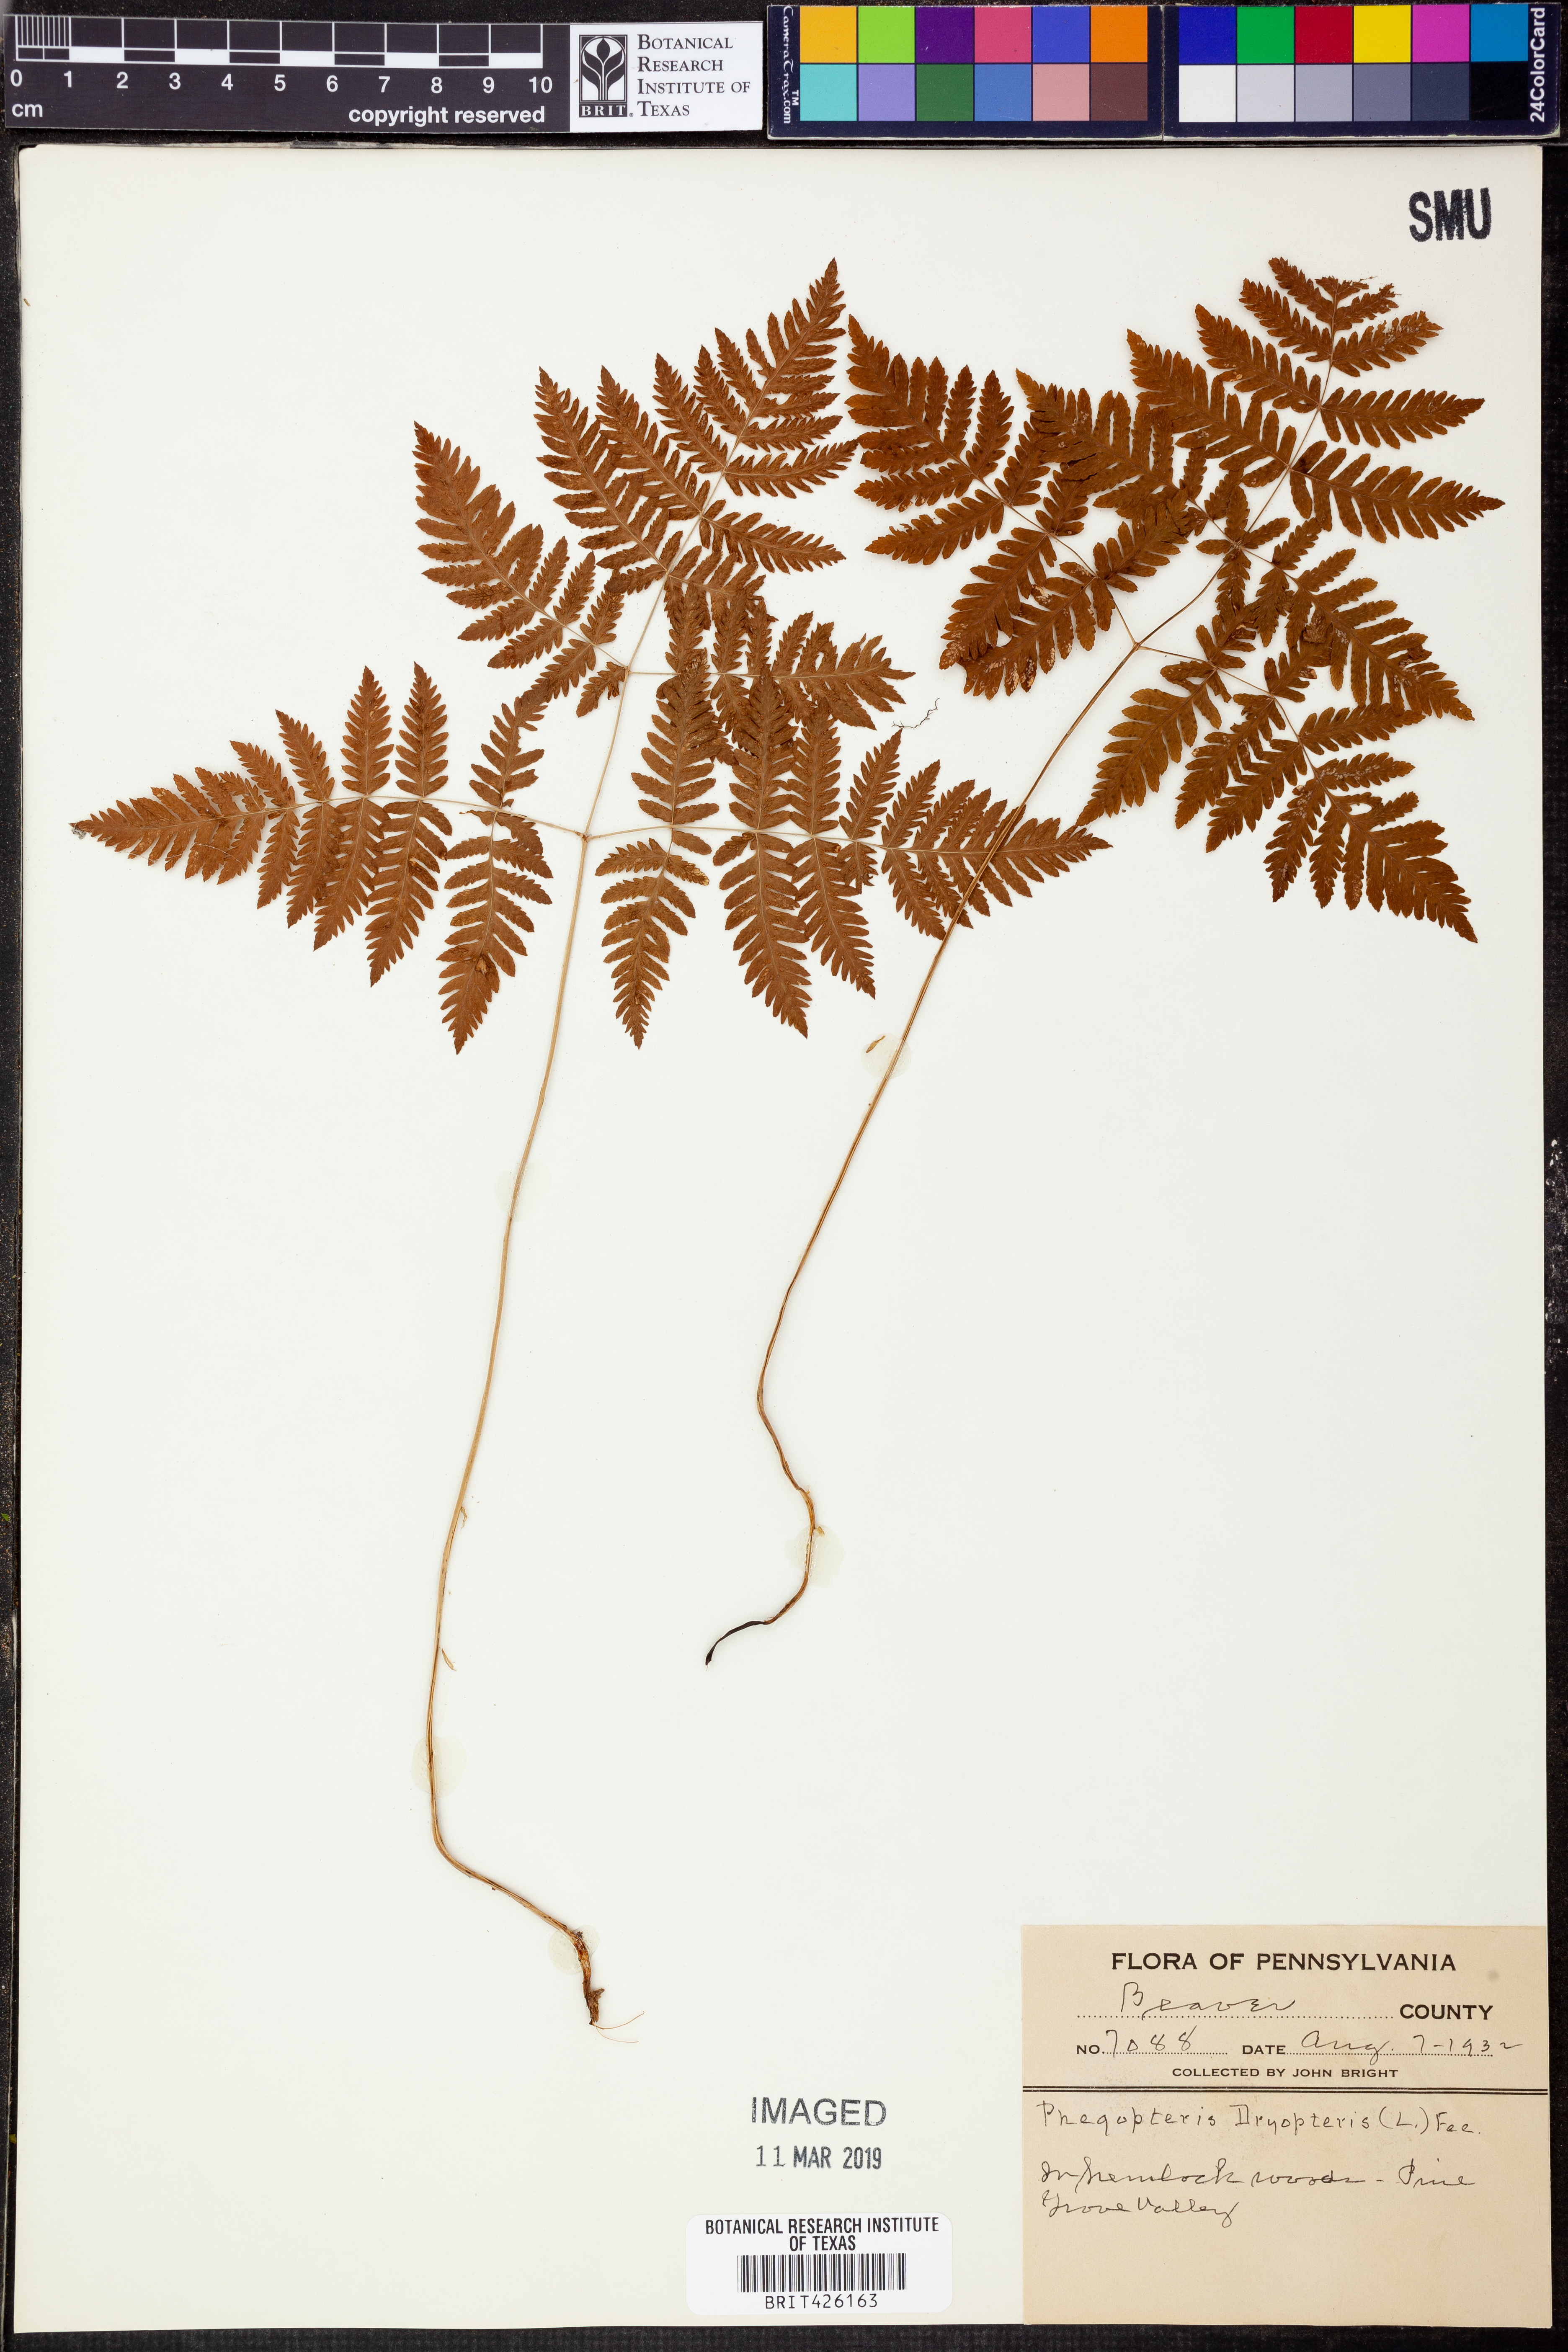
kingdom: Plantae
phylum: Tracheophyta
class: Polypodiopsida
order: Polypodiales
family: Cystopteridaceae
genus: Gymnocarpium
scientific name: Gymnocarpium dryopteris
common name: Oak fern
